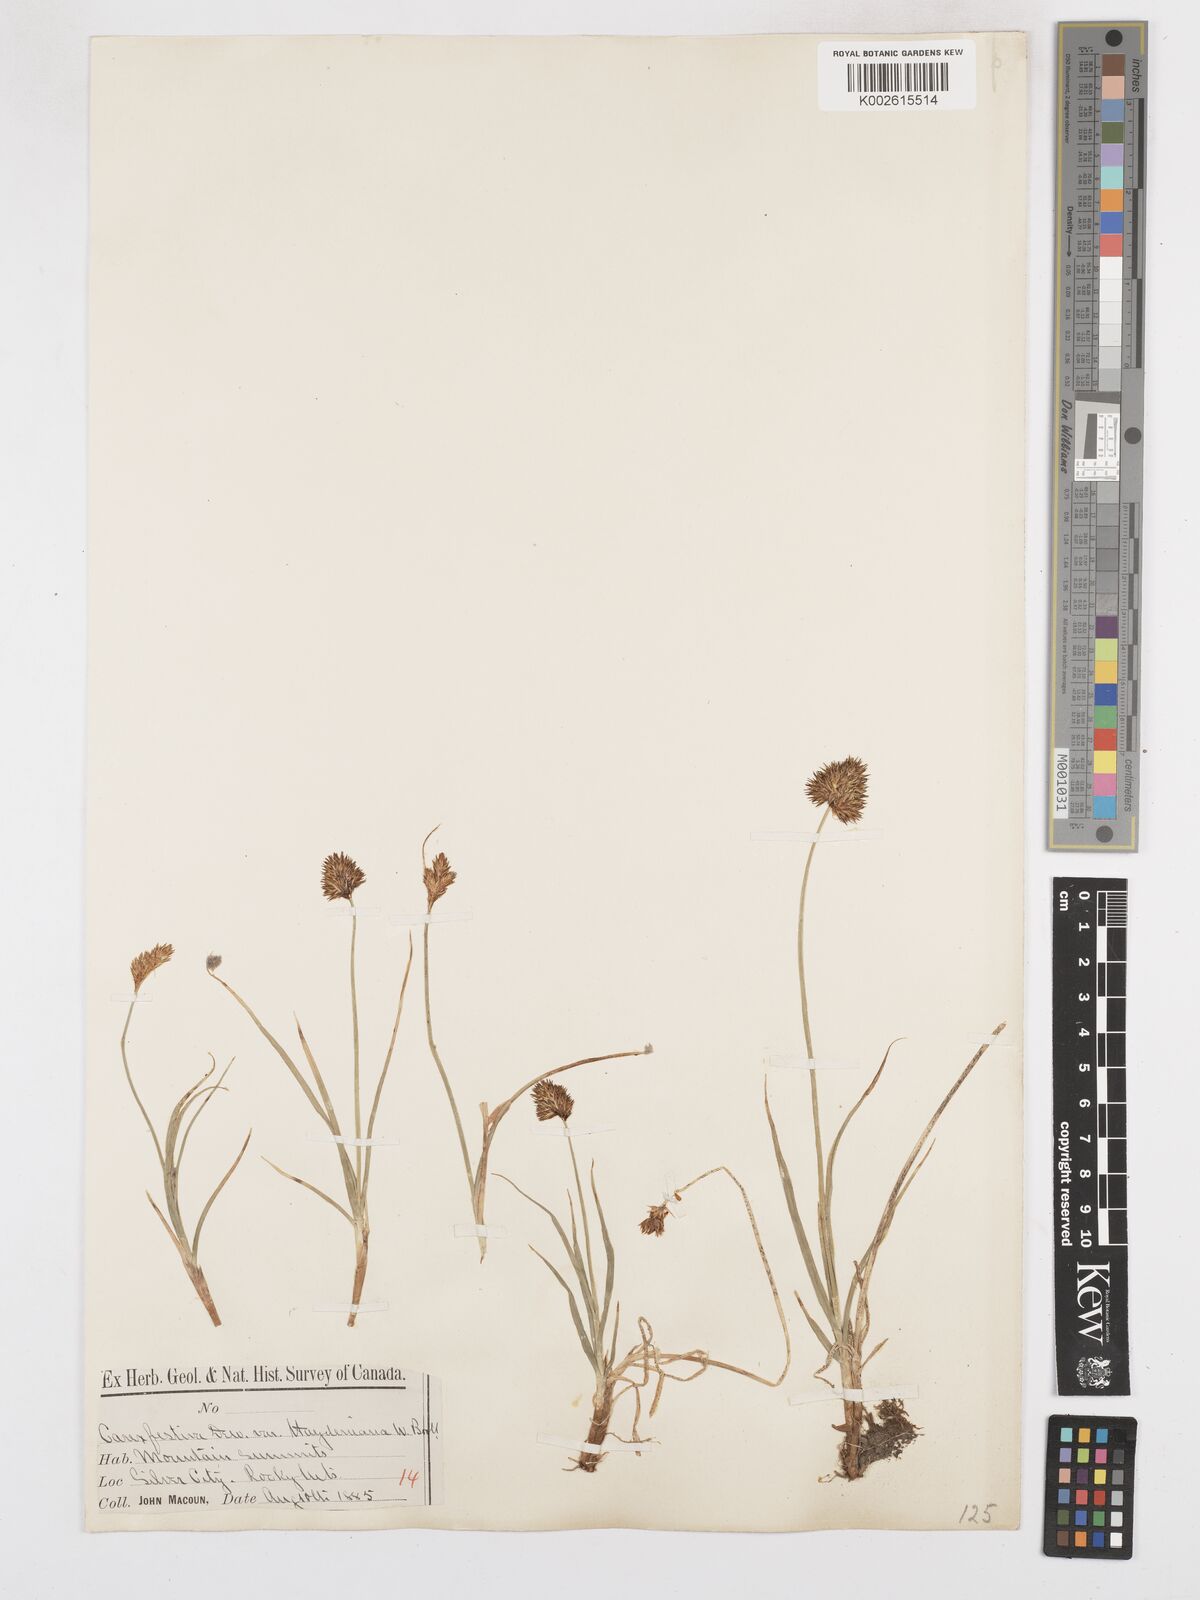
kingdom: Plantae
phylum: Tracheophyta
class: Liliopsida
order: Poales
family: Cyperaceae
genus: Carex
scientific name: Carex macloviana
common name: Falkland island sedge
